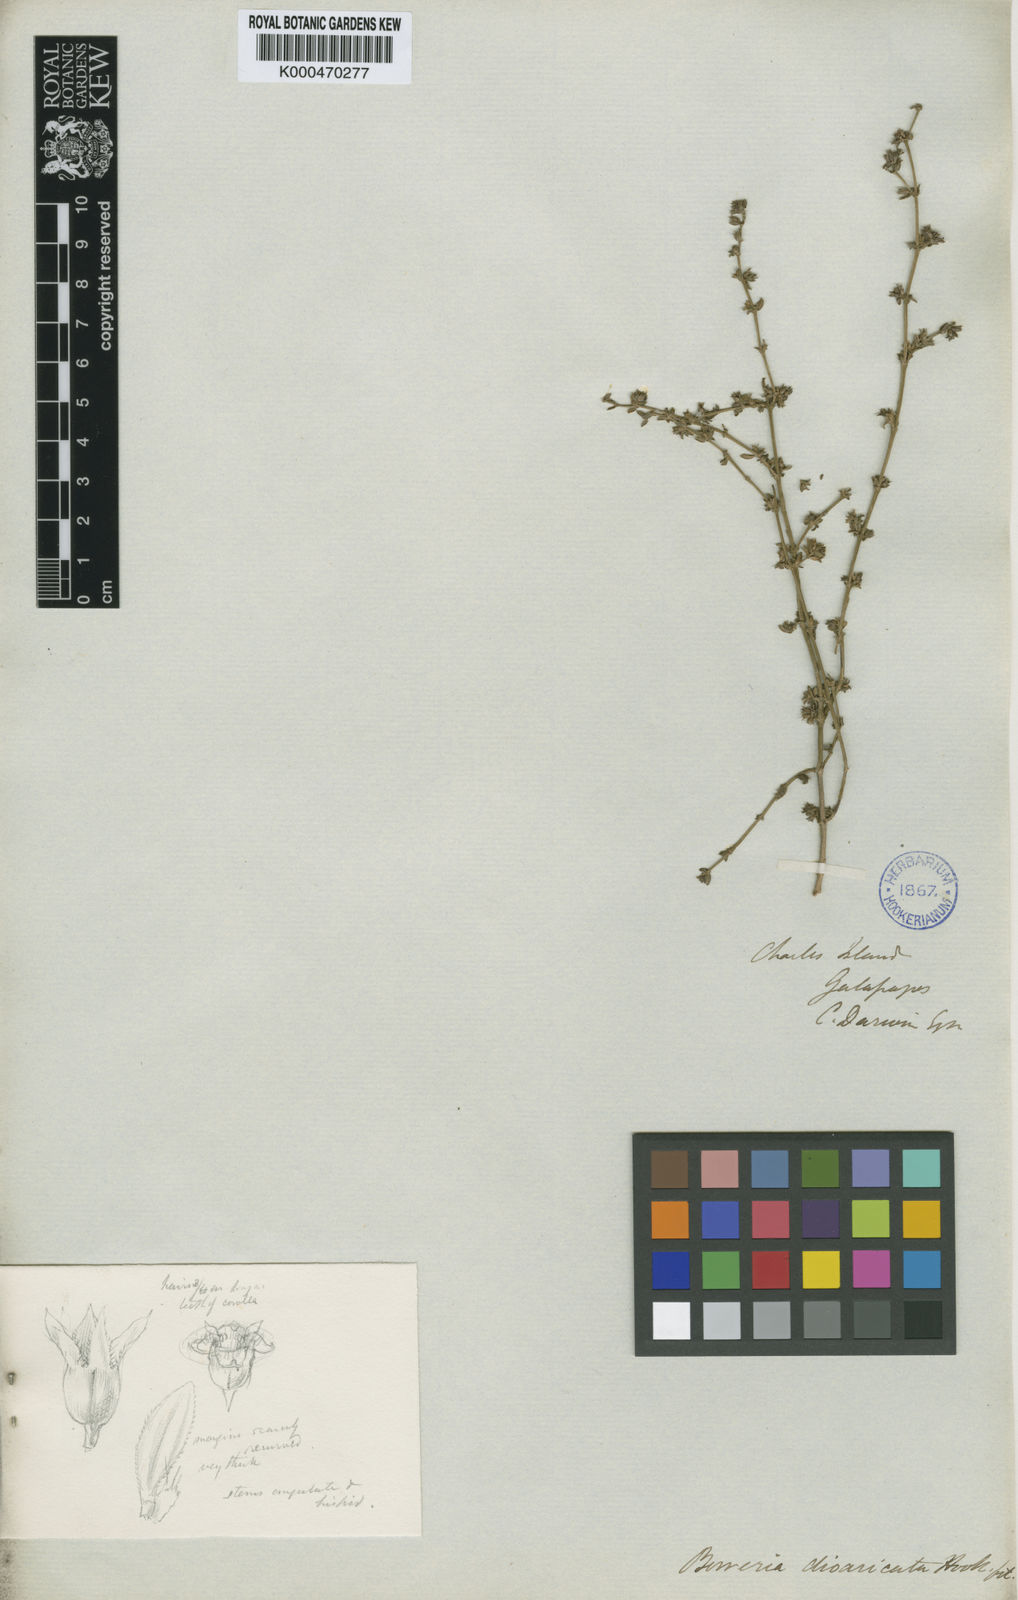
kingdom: Plantae
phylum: Tracheophyta
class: Magnoliopsida
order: Gentianales
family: Rubiaceae
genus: Spermacoce
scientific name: Spermacoce divaricata
